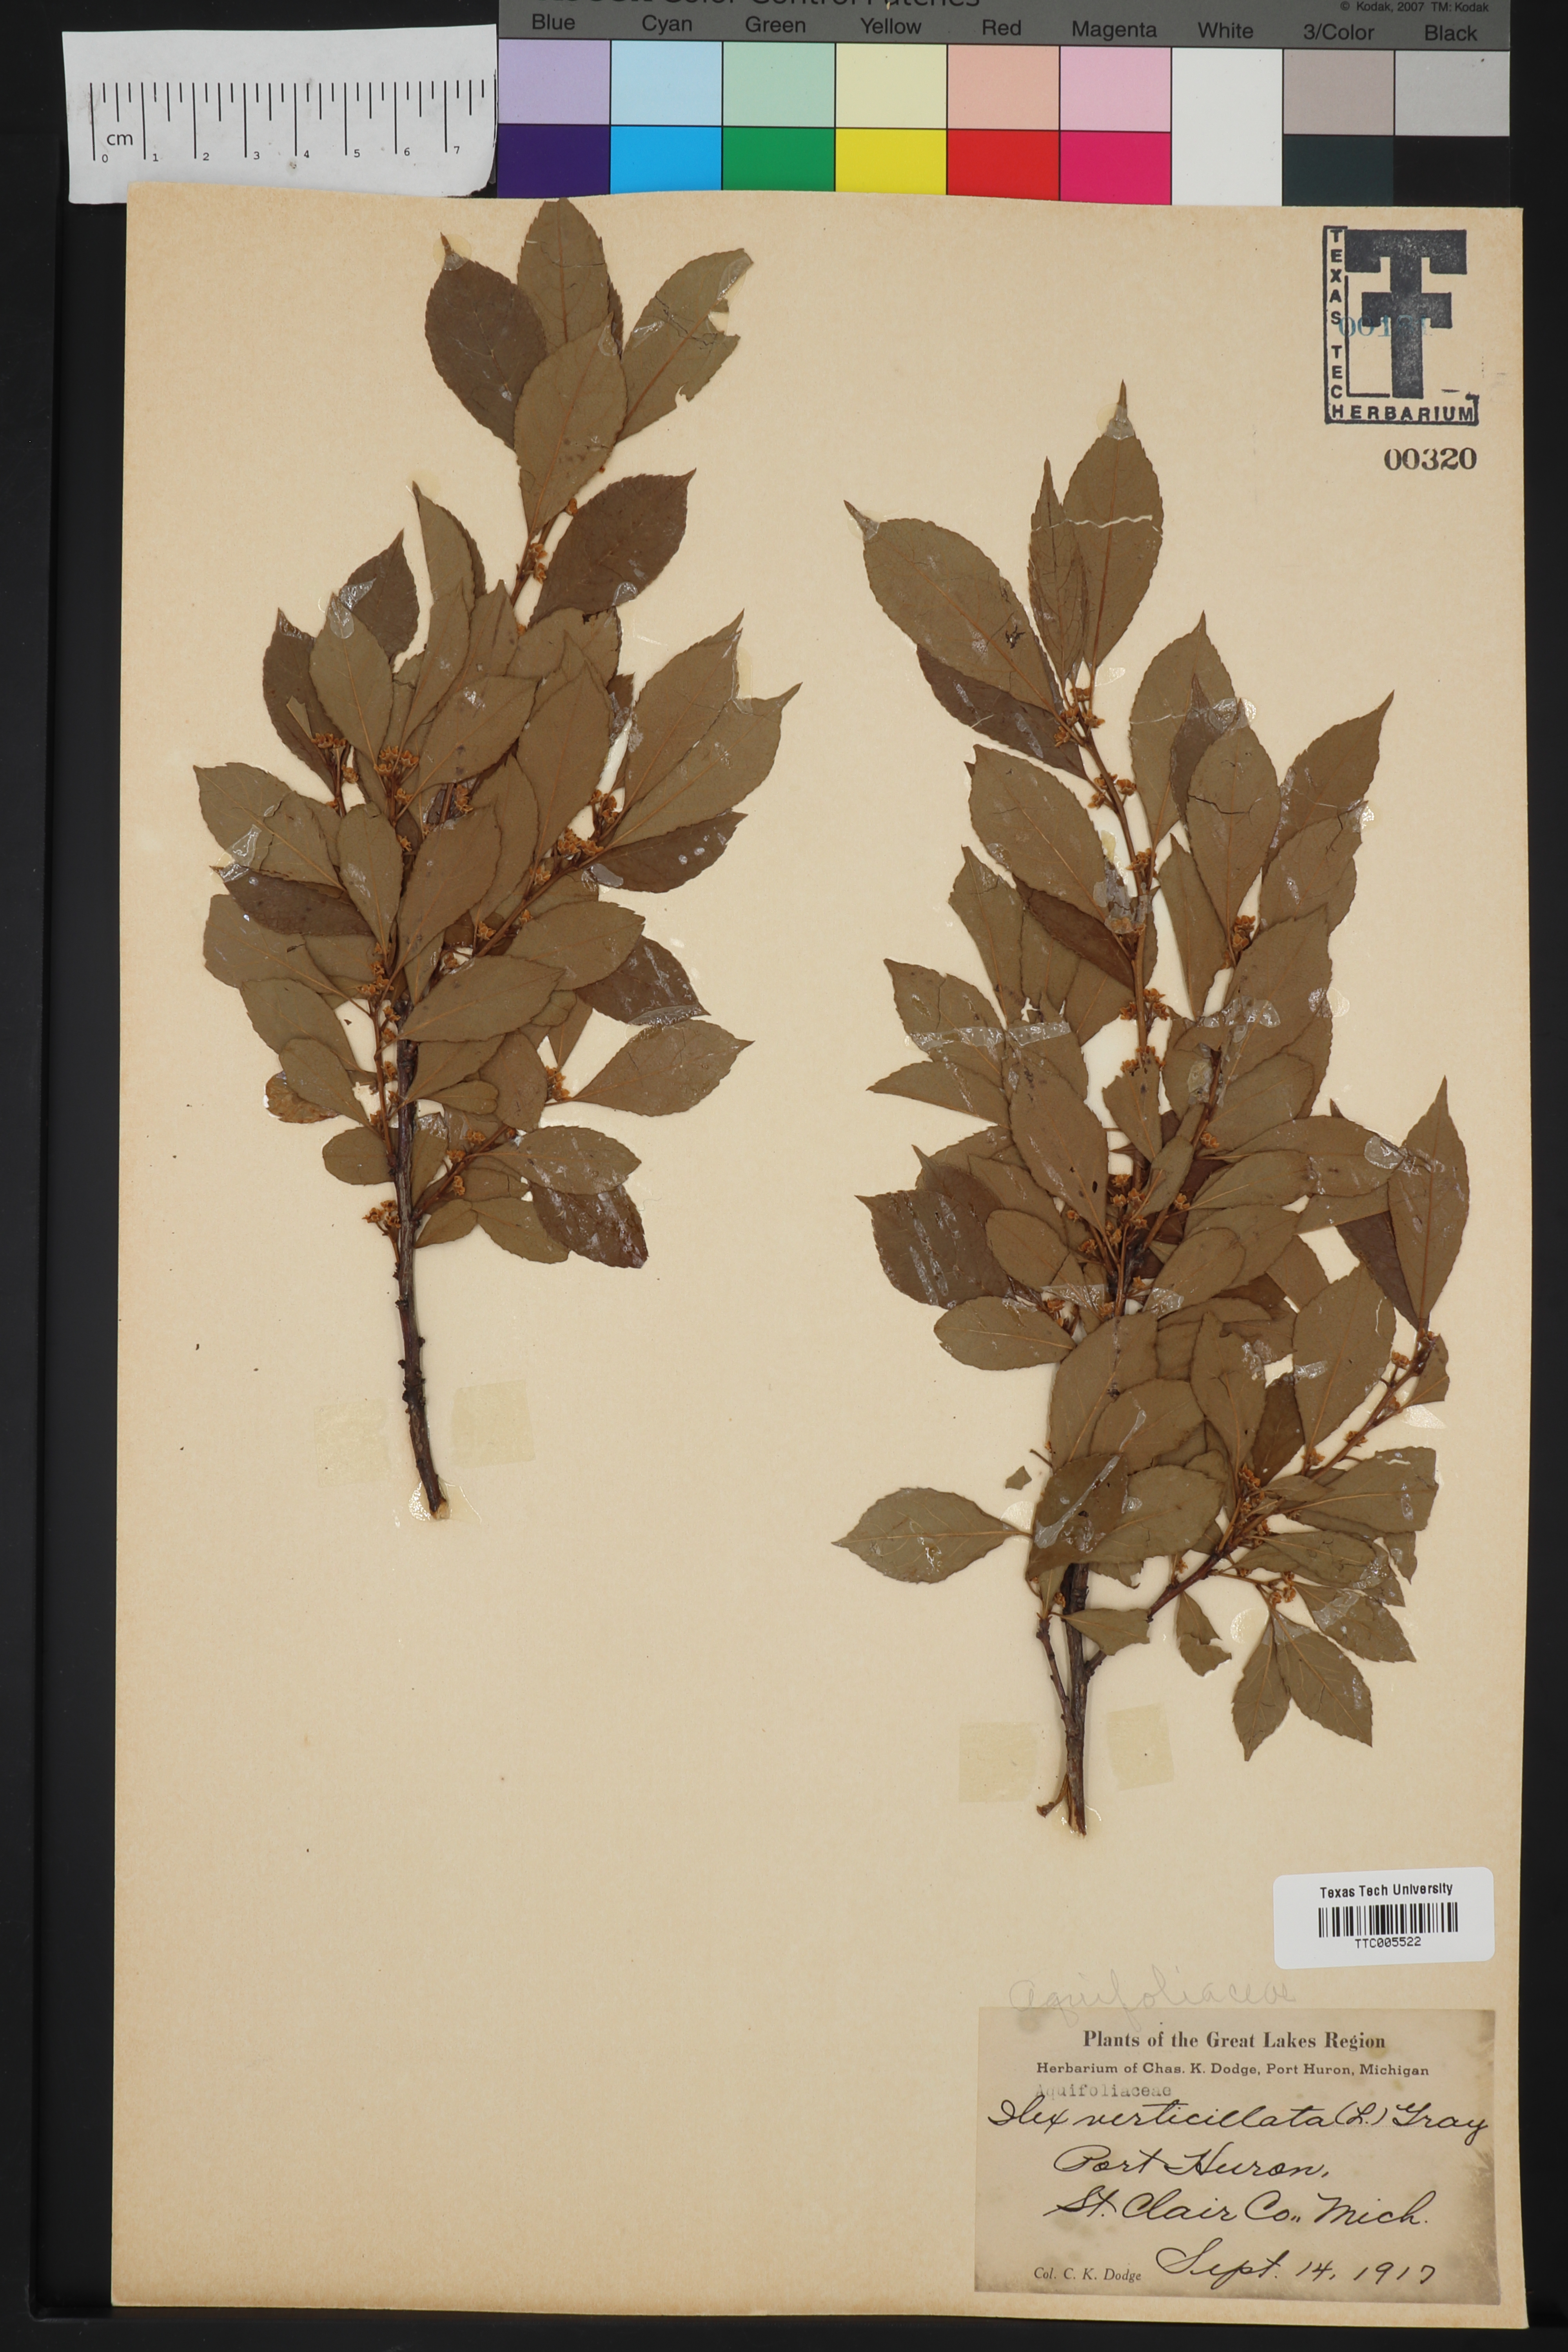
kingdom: Plantae
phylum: Tracheophyta
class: Magnoliopsida
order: Aquifoliales
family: Aquifoliaceae
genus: Ilex
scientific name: Ilex verticillata
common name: Virginia winterberry
